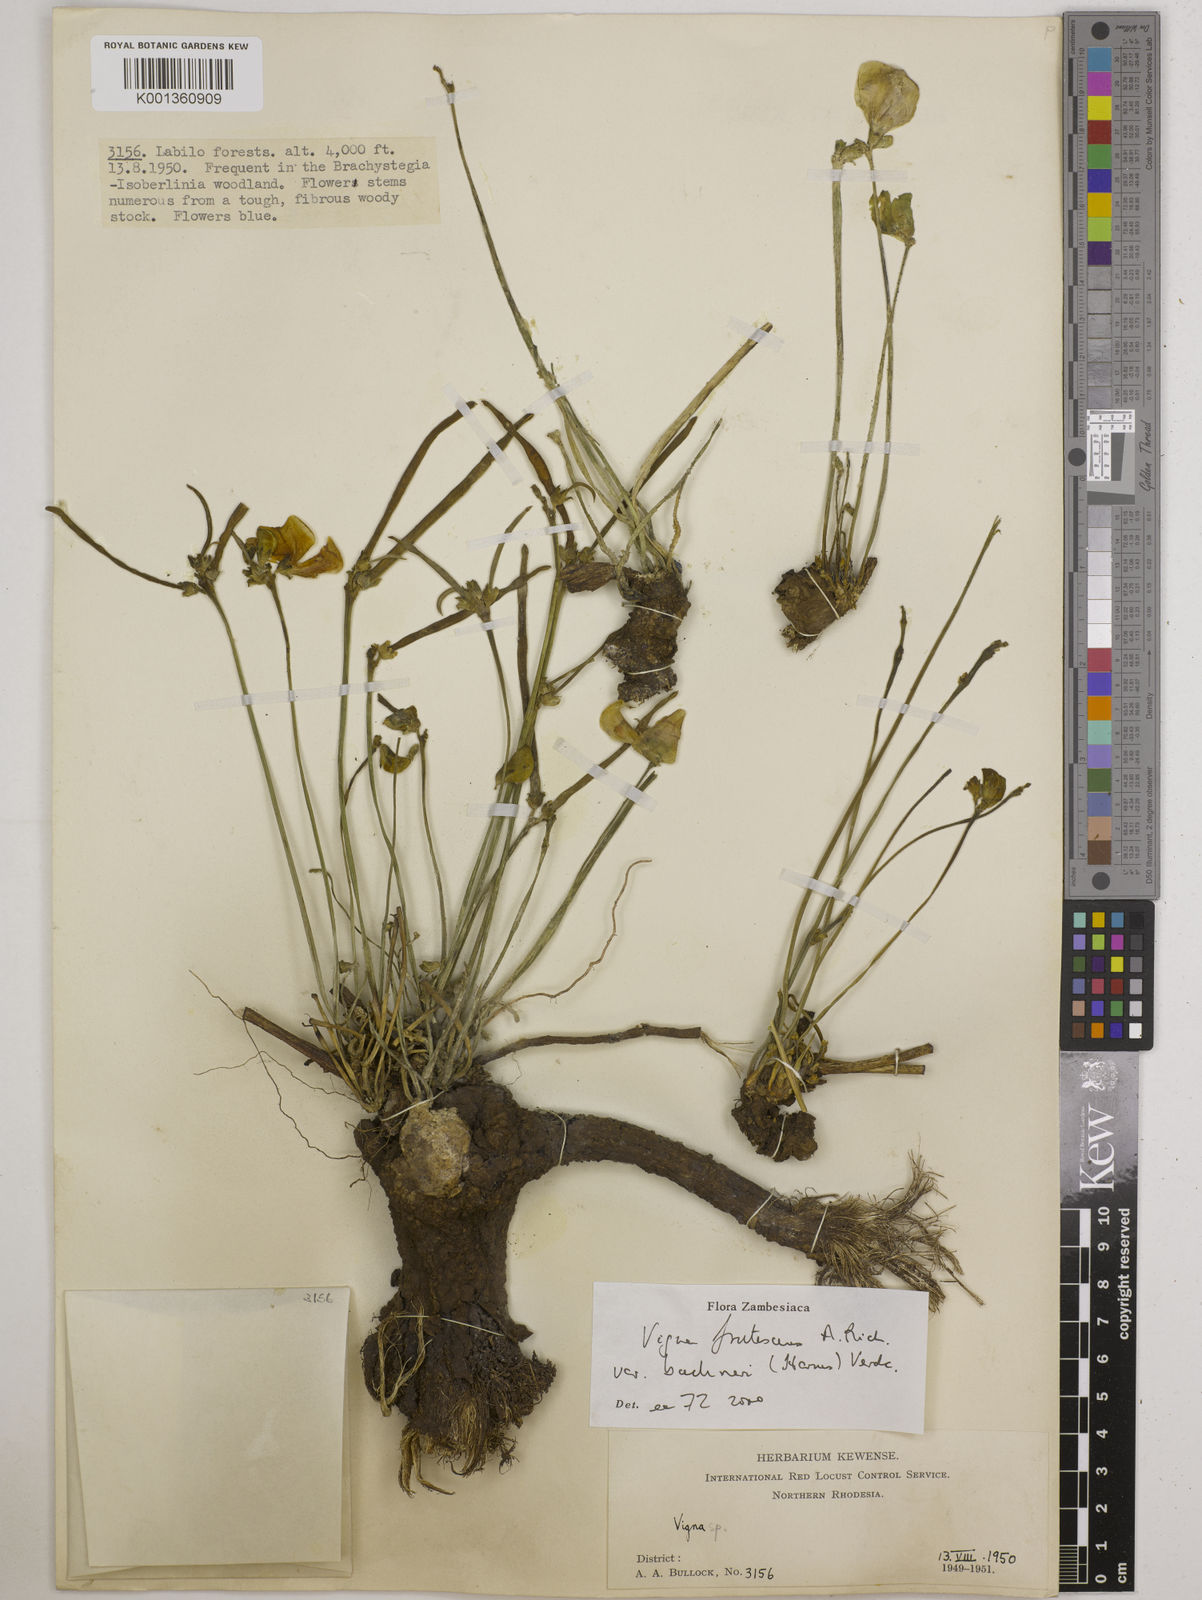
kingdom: Plantae
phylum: Tracheophyta
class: Magnoliopsida
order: Fabales
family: Fabaceae
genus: Vigna
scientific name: Vigna
